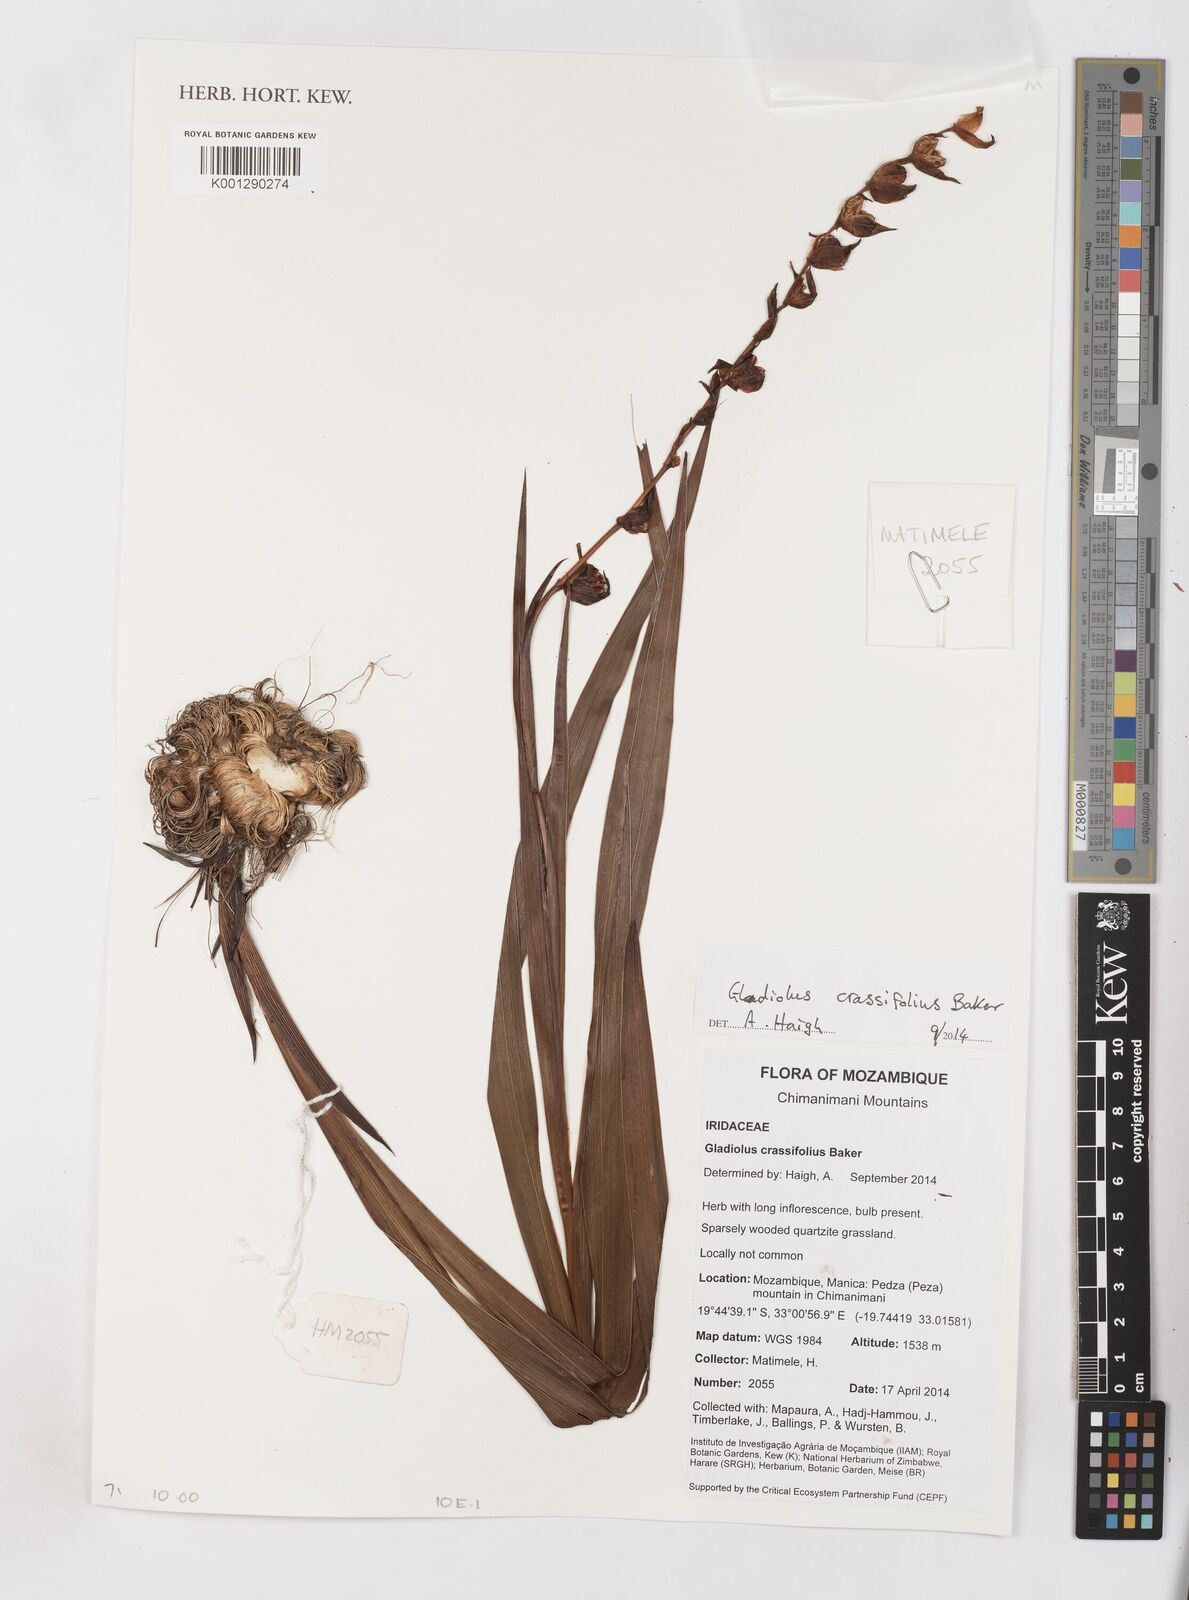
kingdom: Plantae
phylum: Tracheophyta
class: Liliopsida
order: Asparagales
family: Iridaceae
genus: Gladiolus
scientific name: Gladiolus crassifolius
